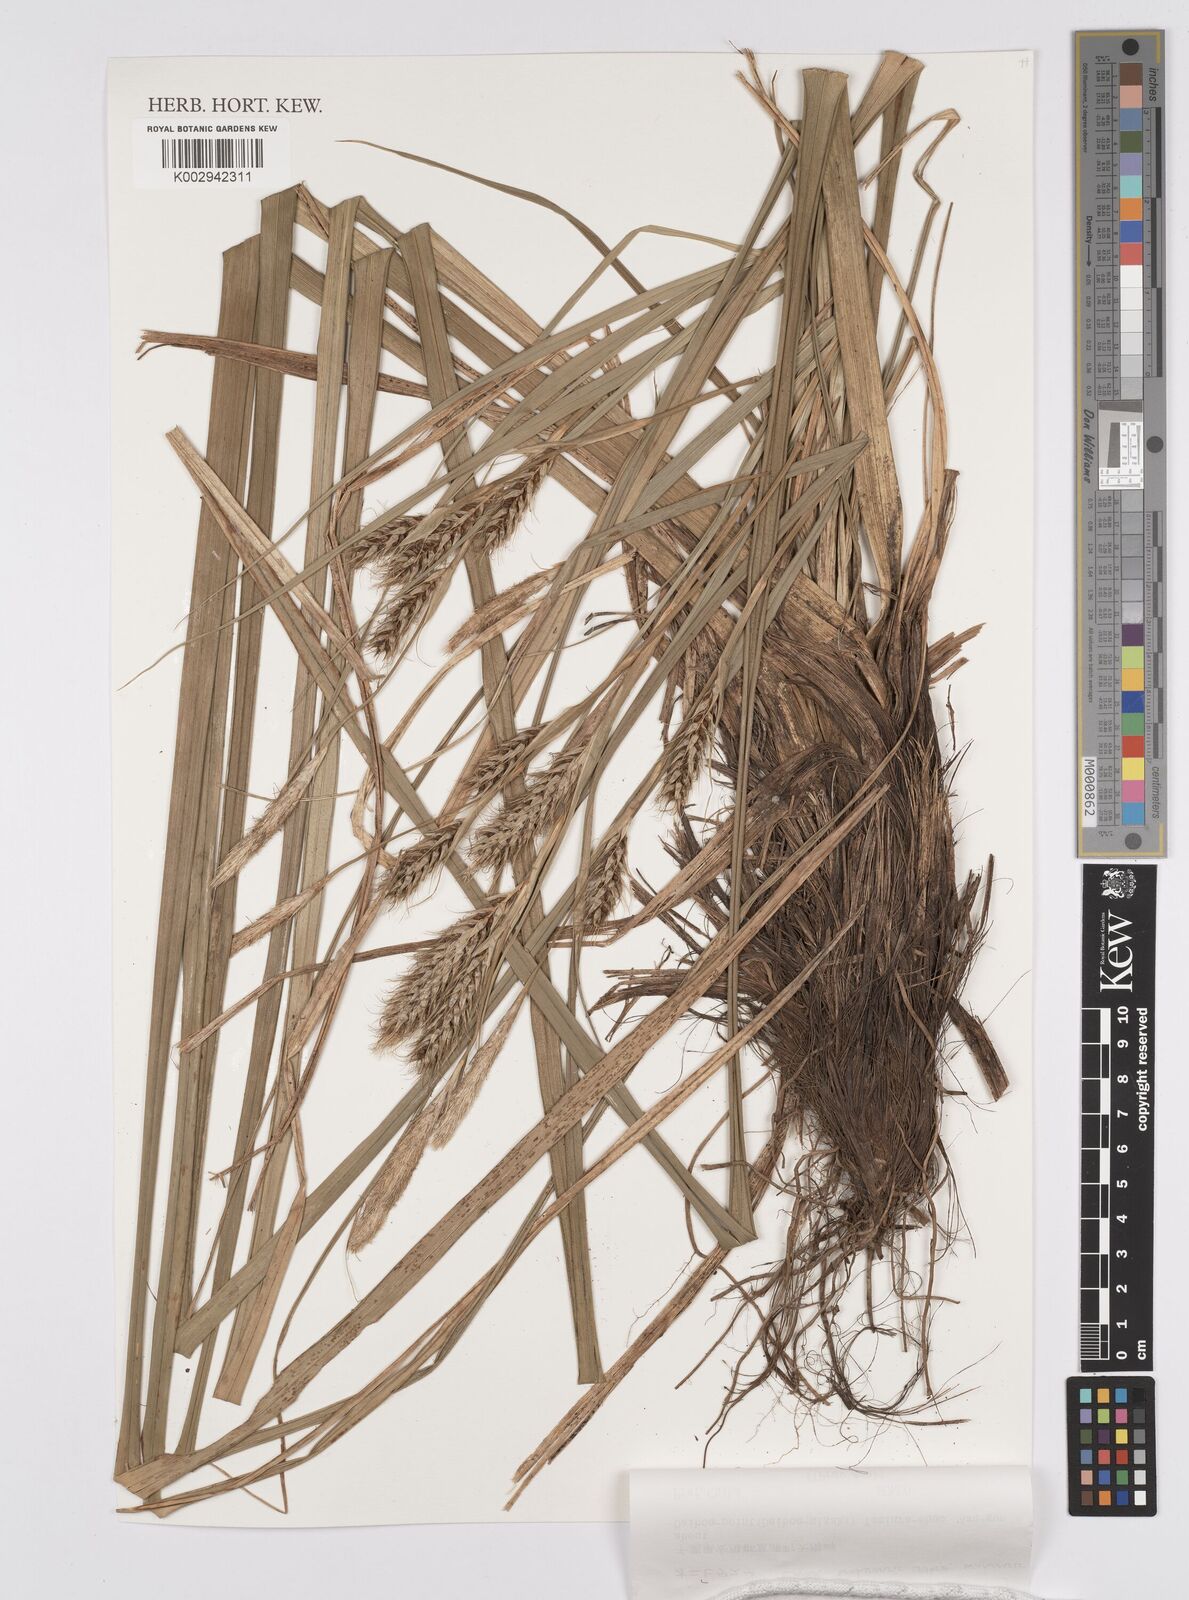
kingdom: Plantae
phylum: Tracheophyta
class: Liliopsida
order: Poales
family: Cyperaceae
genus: Carex
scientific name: Carex wahuensis
